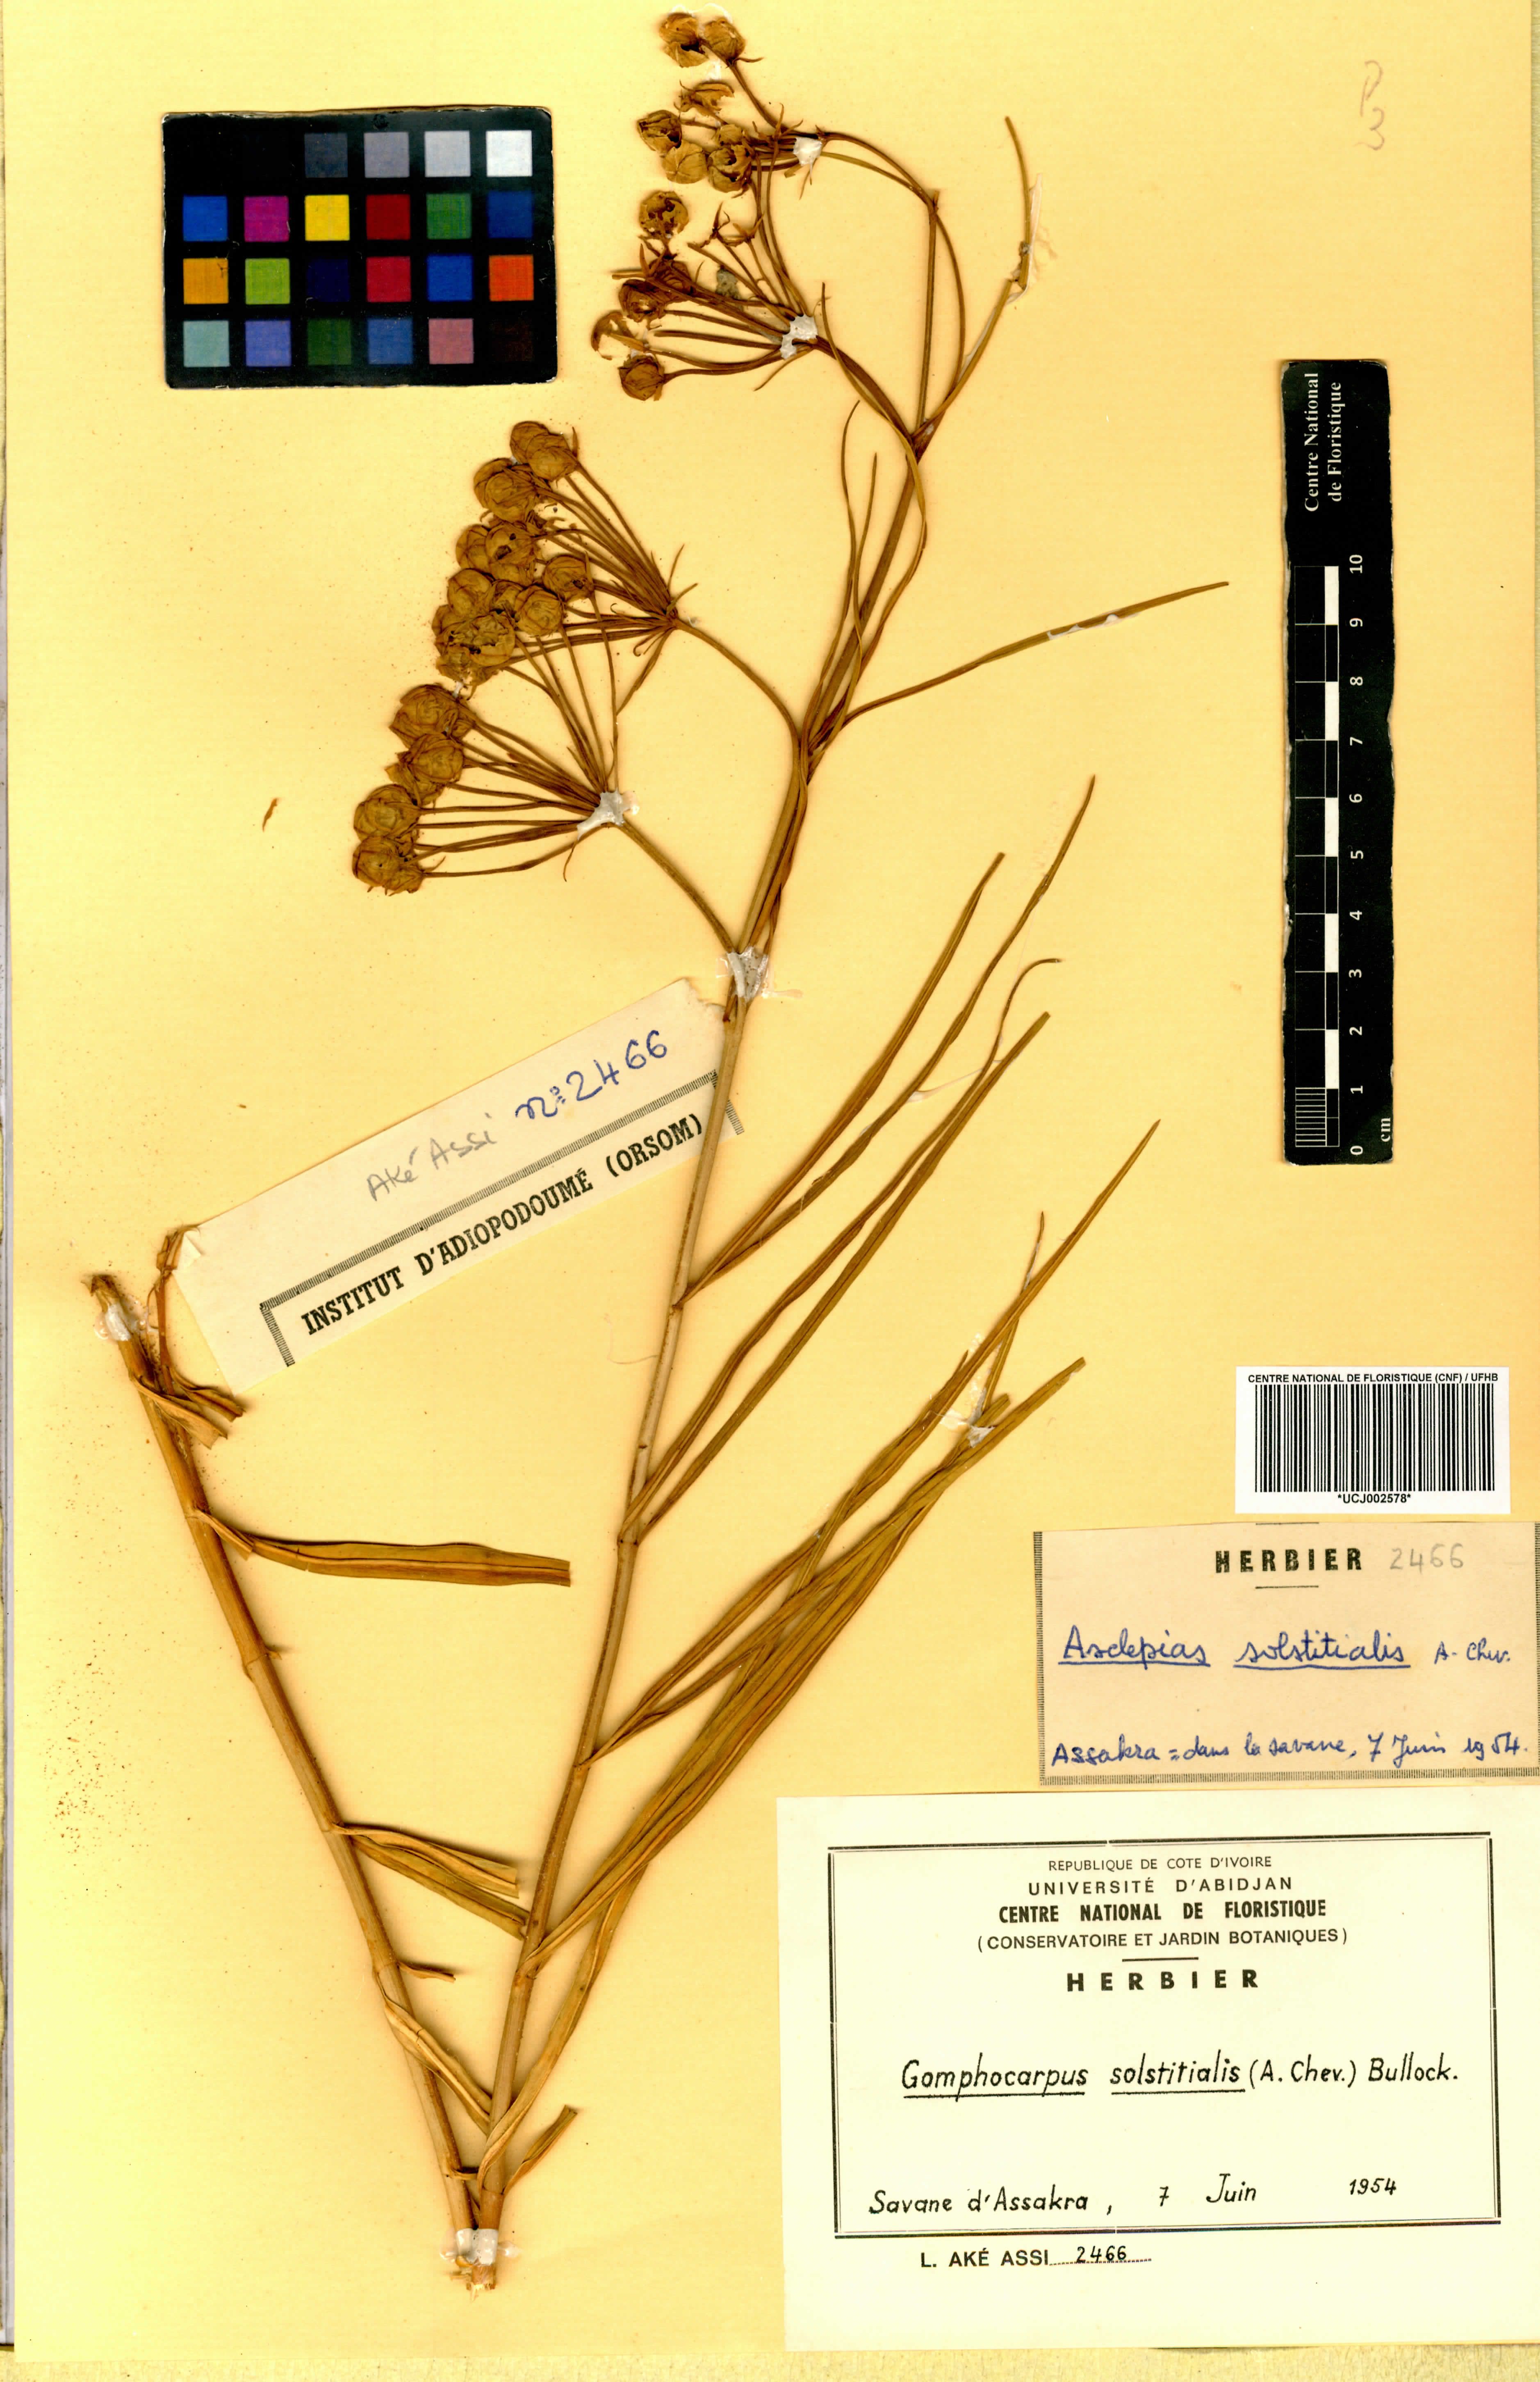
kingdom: Plantae
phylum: Tracheophyta
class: Magnoliopsida
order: Gentianales
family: Apocynaceae
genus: Asclepias
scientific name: Asclepias solstitialis
